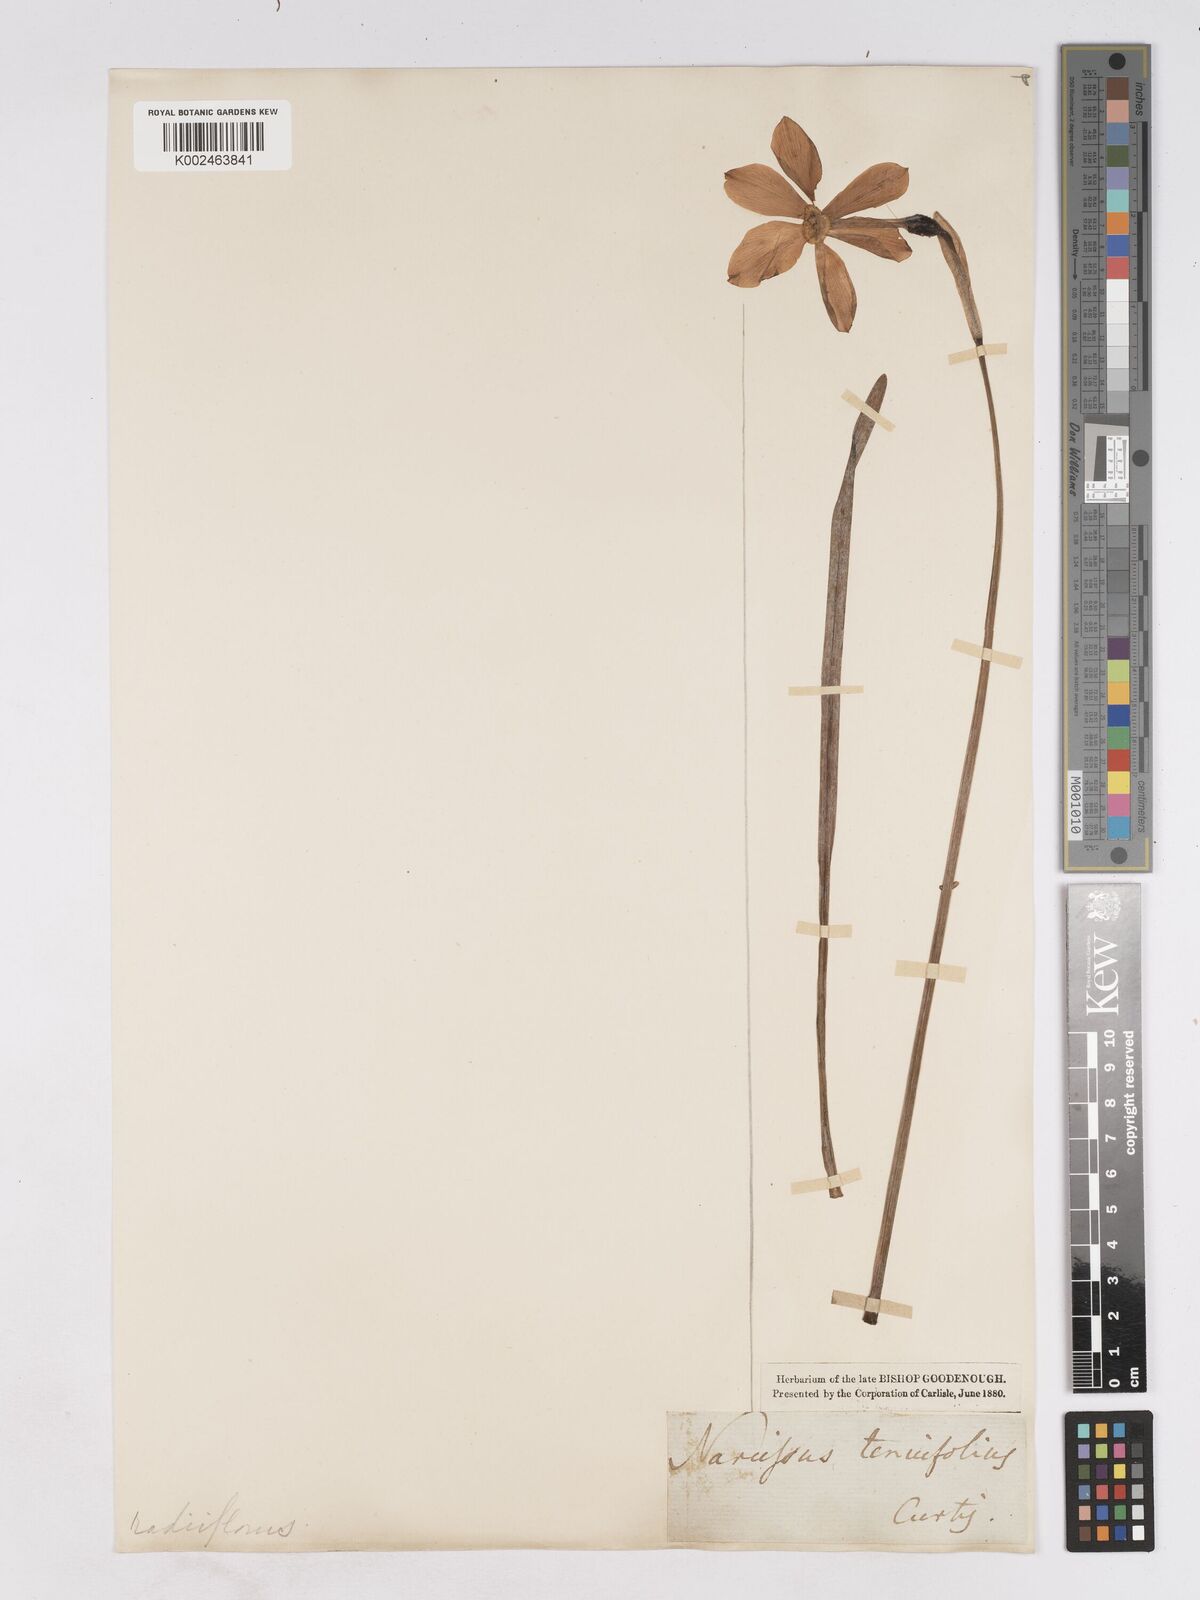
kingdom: Plantae
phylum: Tracheophyta
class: Liliopsida
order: Asparagales
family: Amaryllidaceae
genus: Narcissus
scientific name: Narcissus poeticus
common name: Pheasant's-eye daffodil
